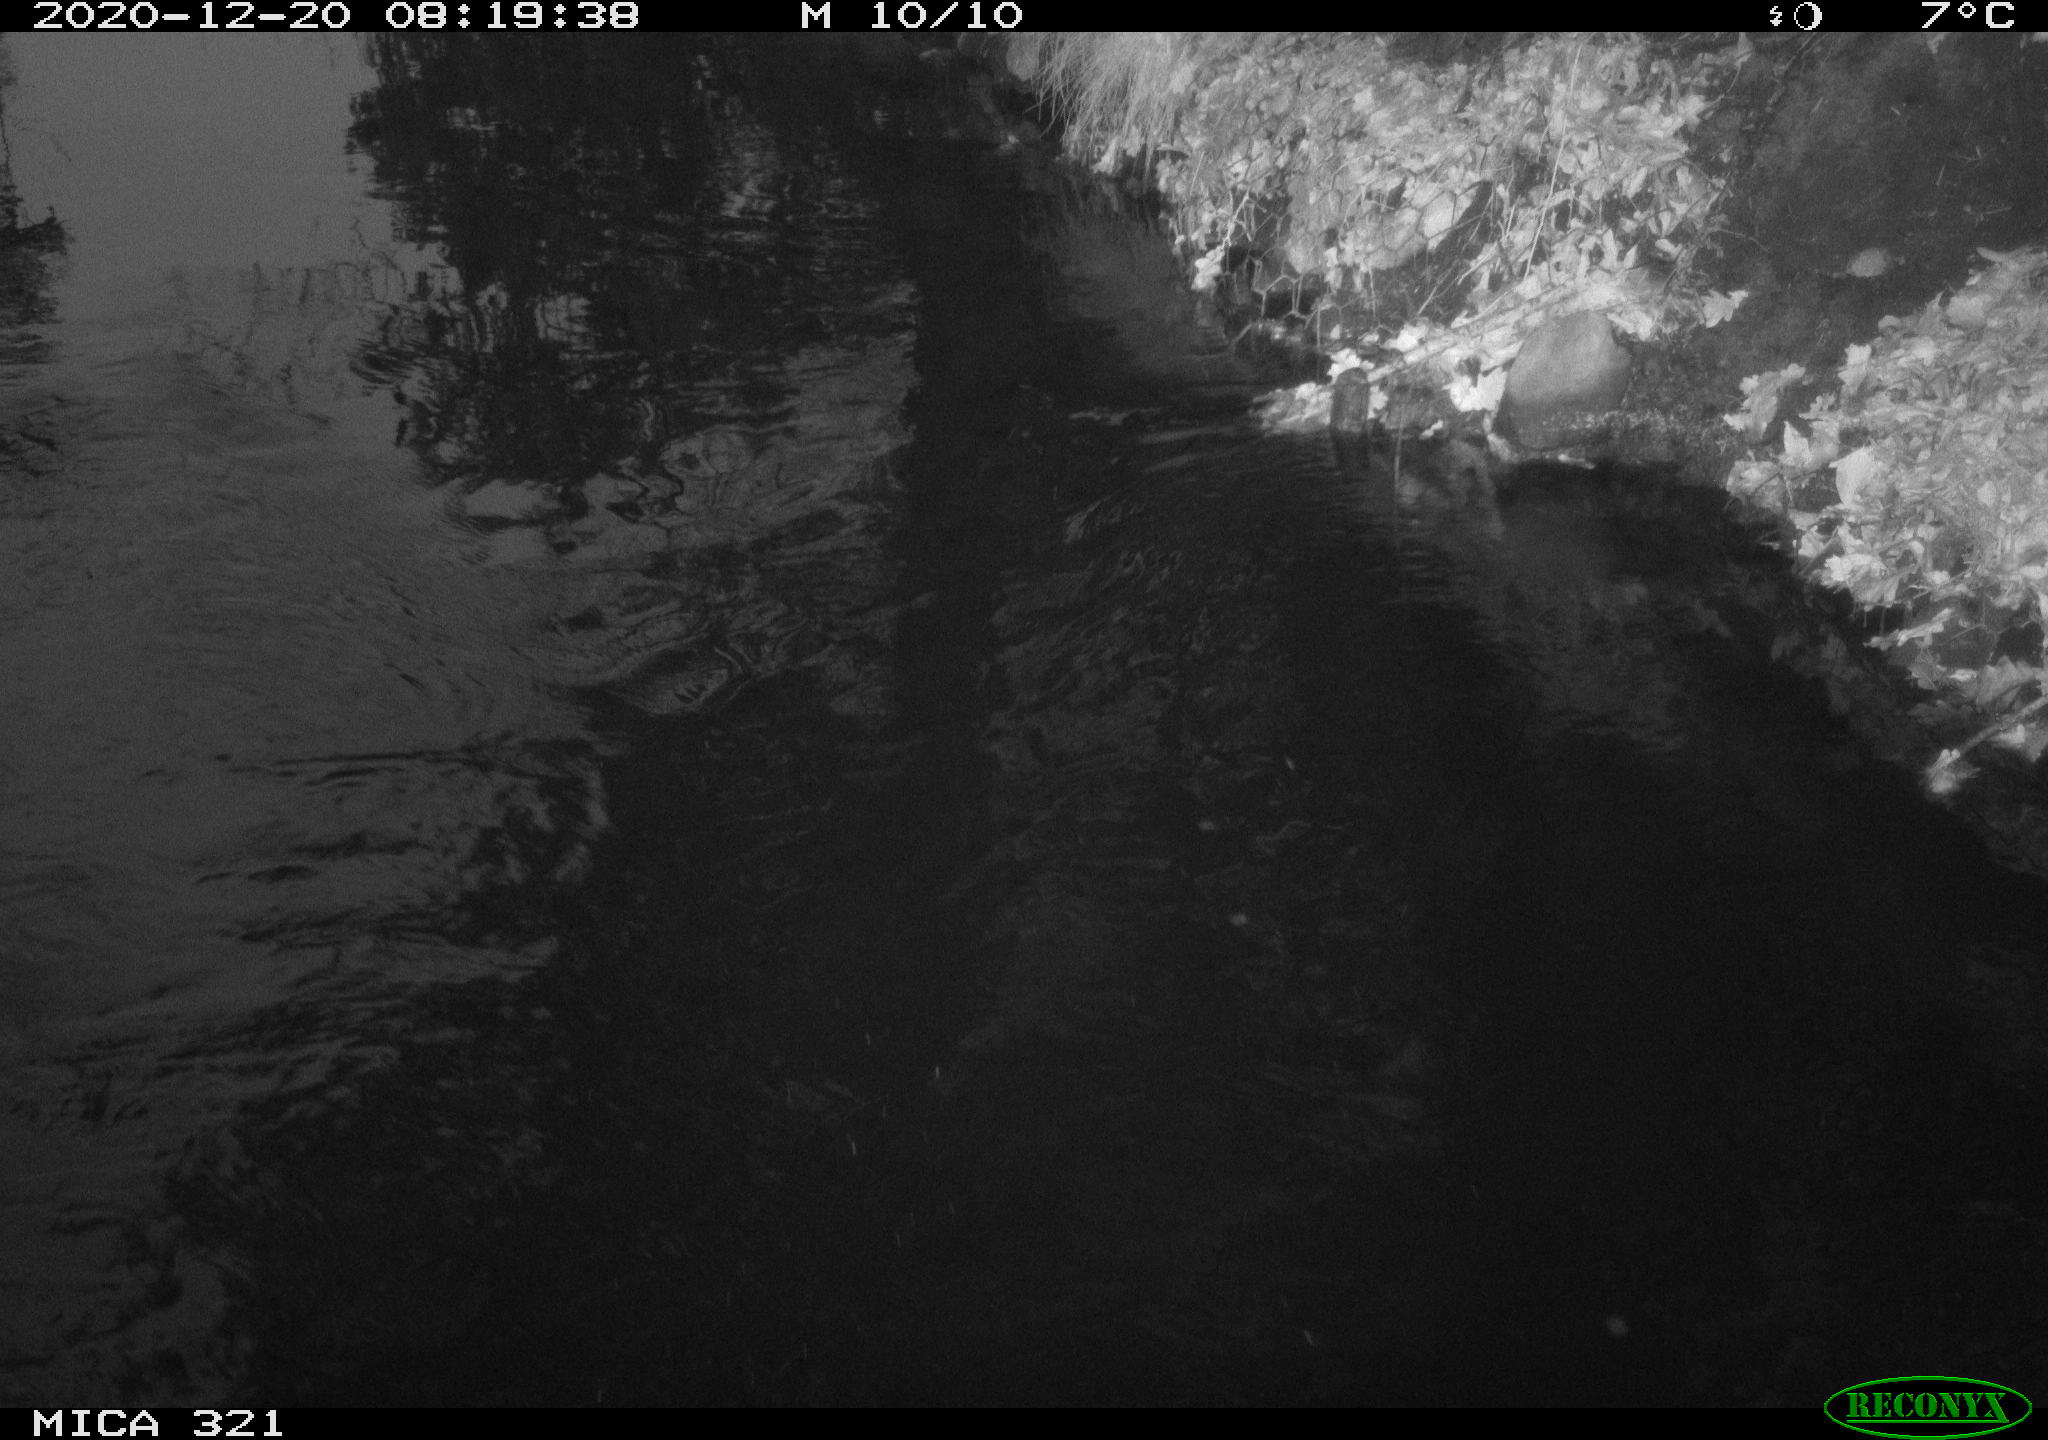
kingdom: Animalia
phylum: Chordata
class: Aves
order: Anseriformes
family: Anatidae
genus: Anas
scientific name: Anas platyrhynchos
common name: Mallard
